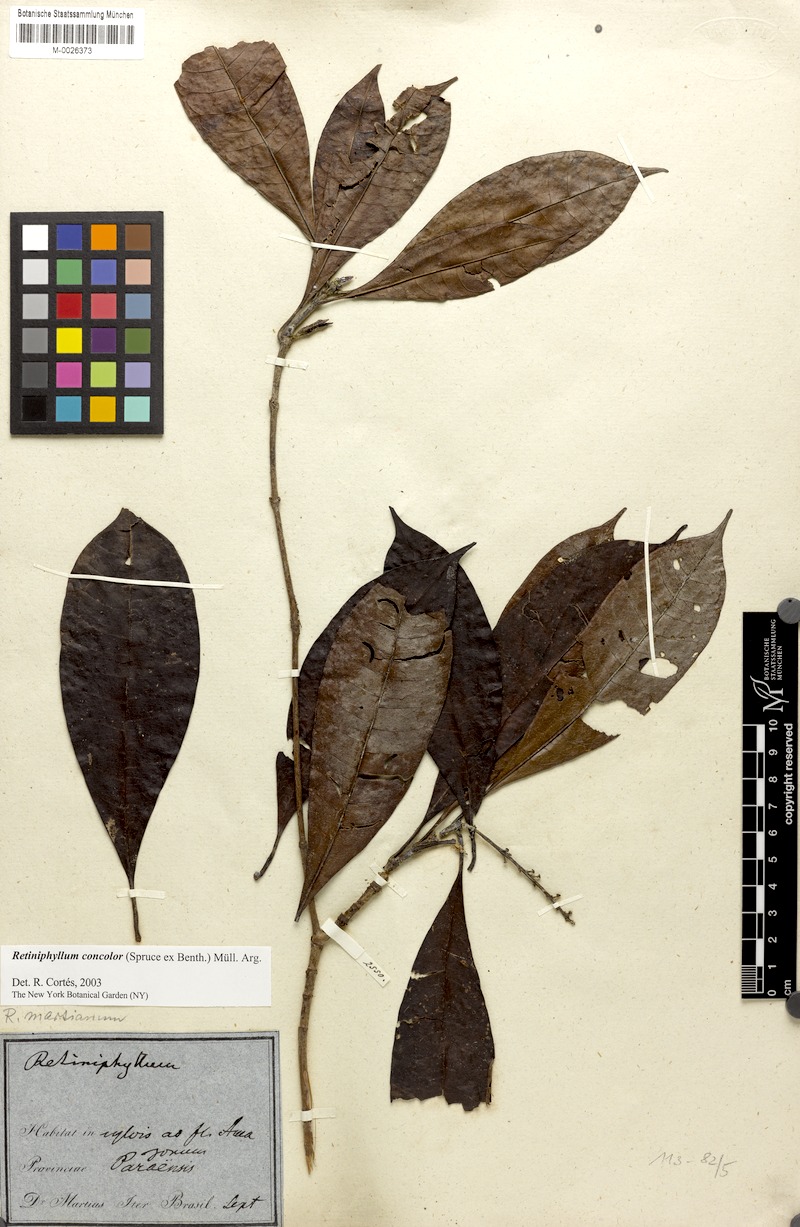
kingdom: Plantae
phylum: Tracheophyta
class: Magnoliopsida
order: Gentianales
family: Rubiaceae
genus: Retiniphyllum
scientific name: Retiniphyllum concolor
